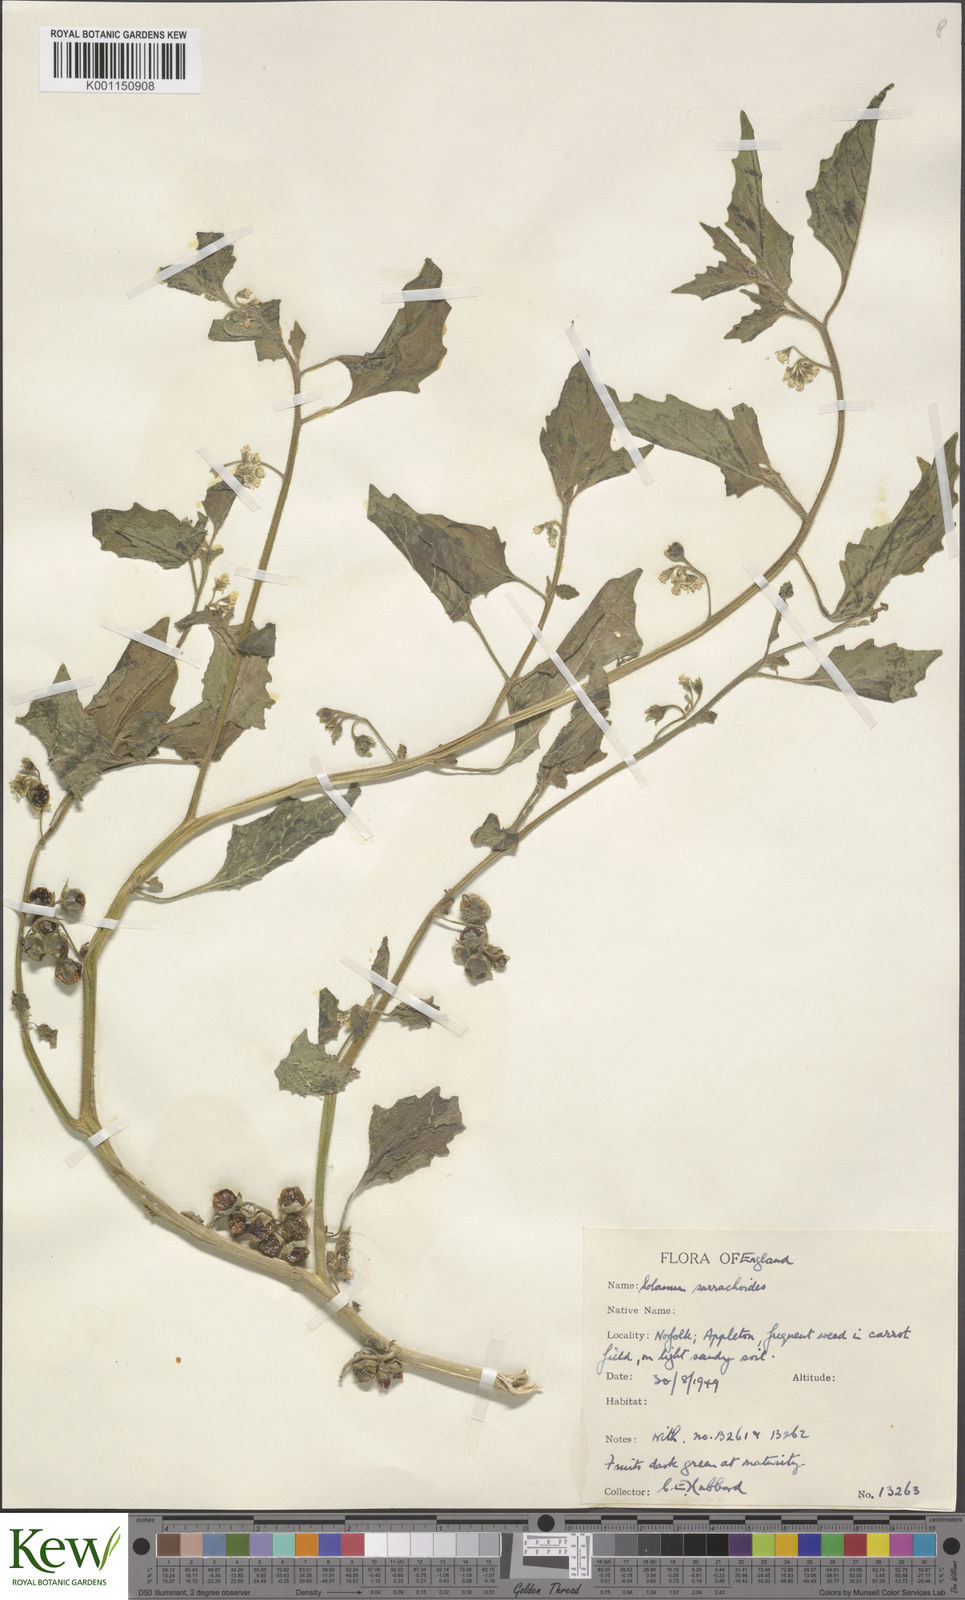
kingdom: Plantae
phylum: Tracheophyta
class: Magnoliopsida
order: Solanales
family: Solanaceae
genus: Solanum
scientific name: Solanum nitidibaccatum
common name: Hairy nightshade
